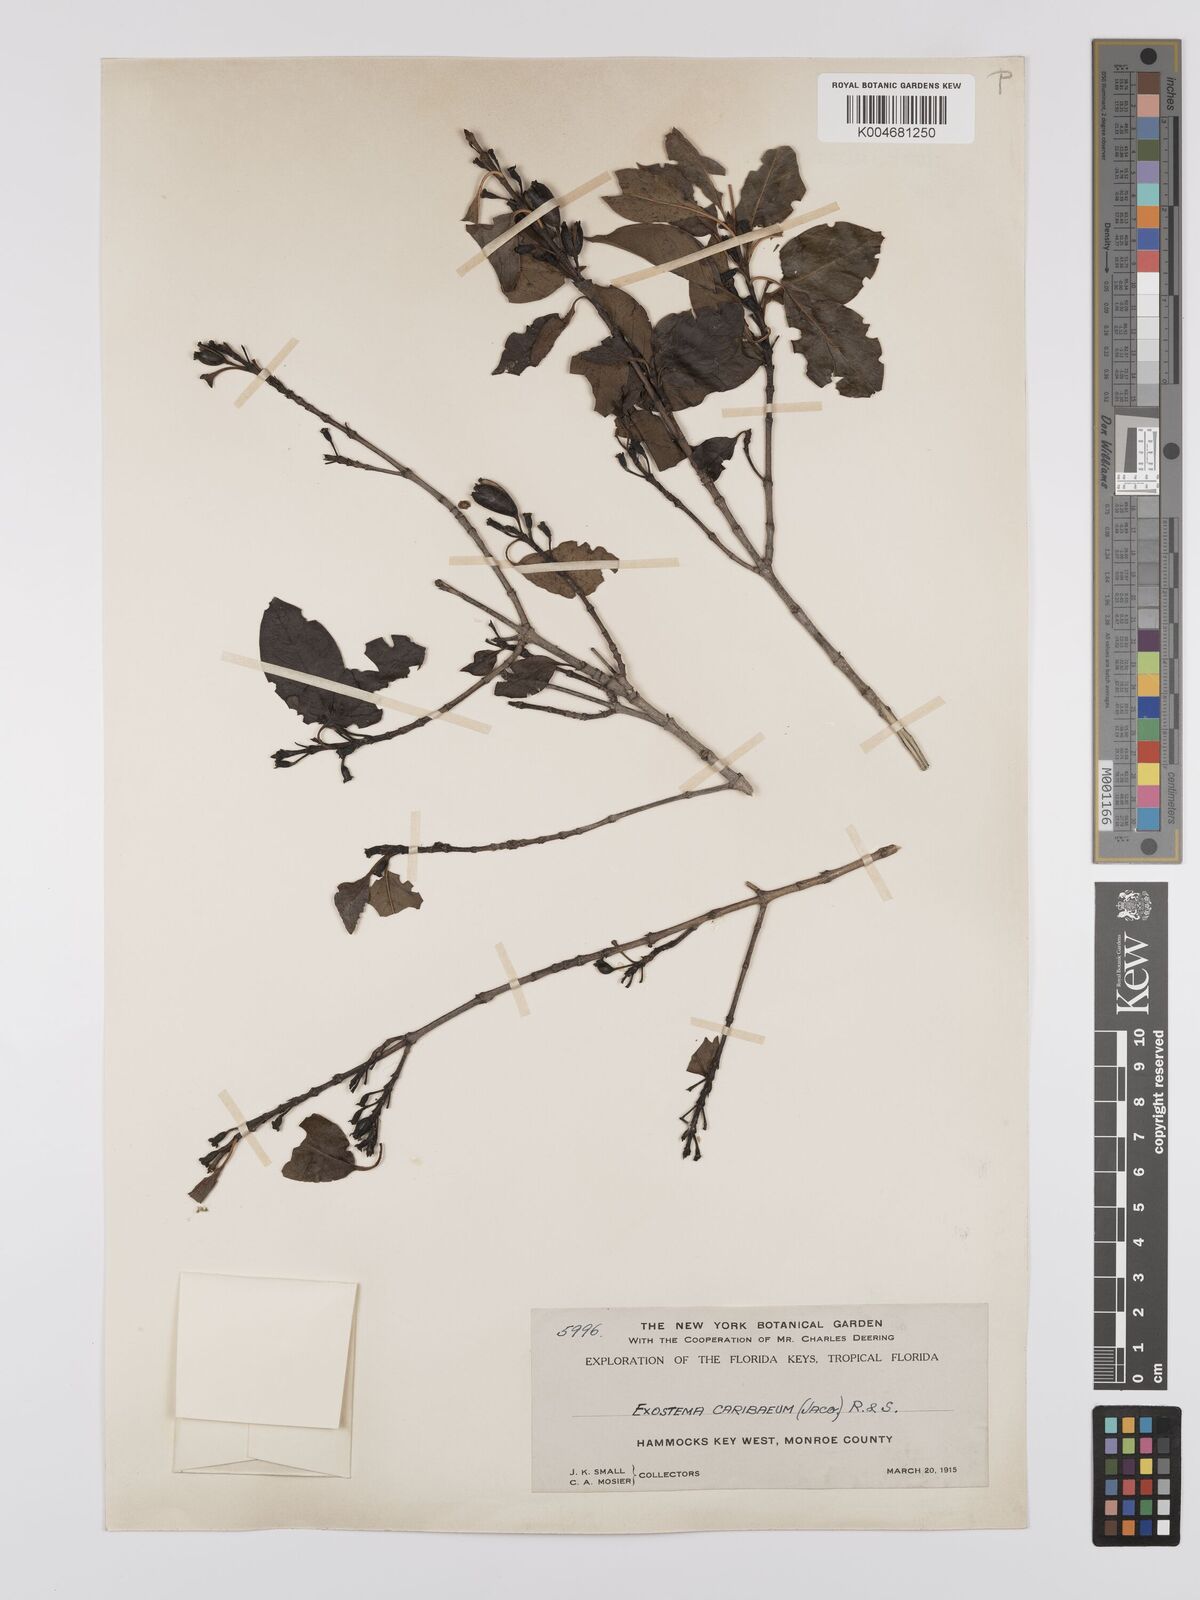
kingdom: Plantae
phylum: Tracheophyta
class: Magnoliopsida
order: Gentianales
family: Rubiaceae
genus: Exostema
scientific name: Exostema caribaeum
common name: Princewood
